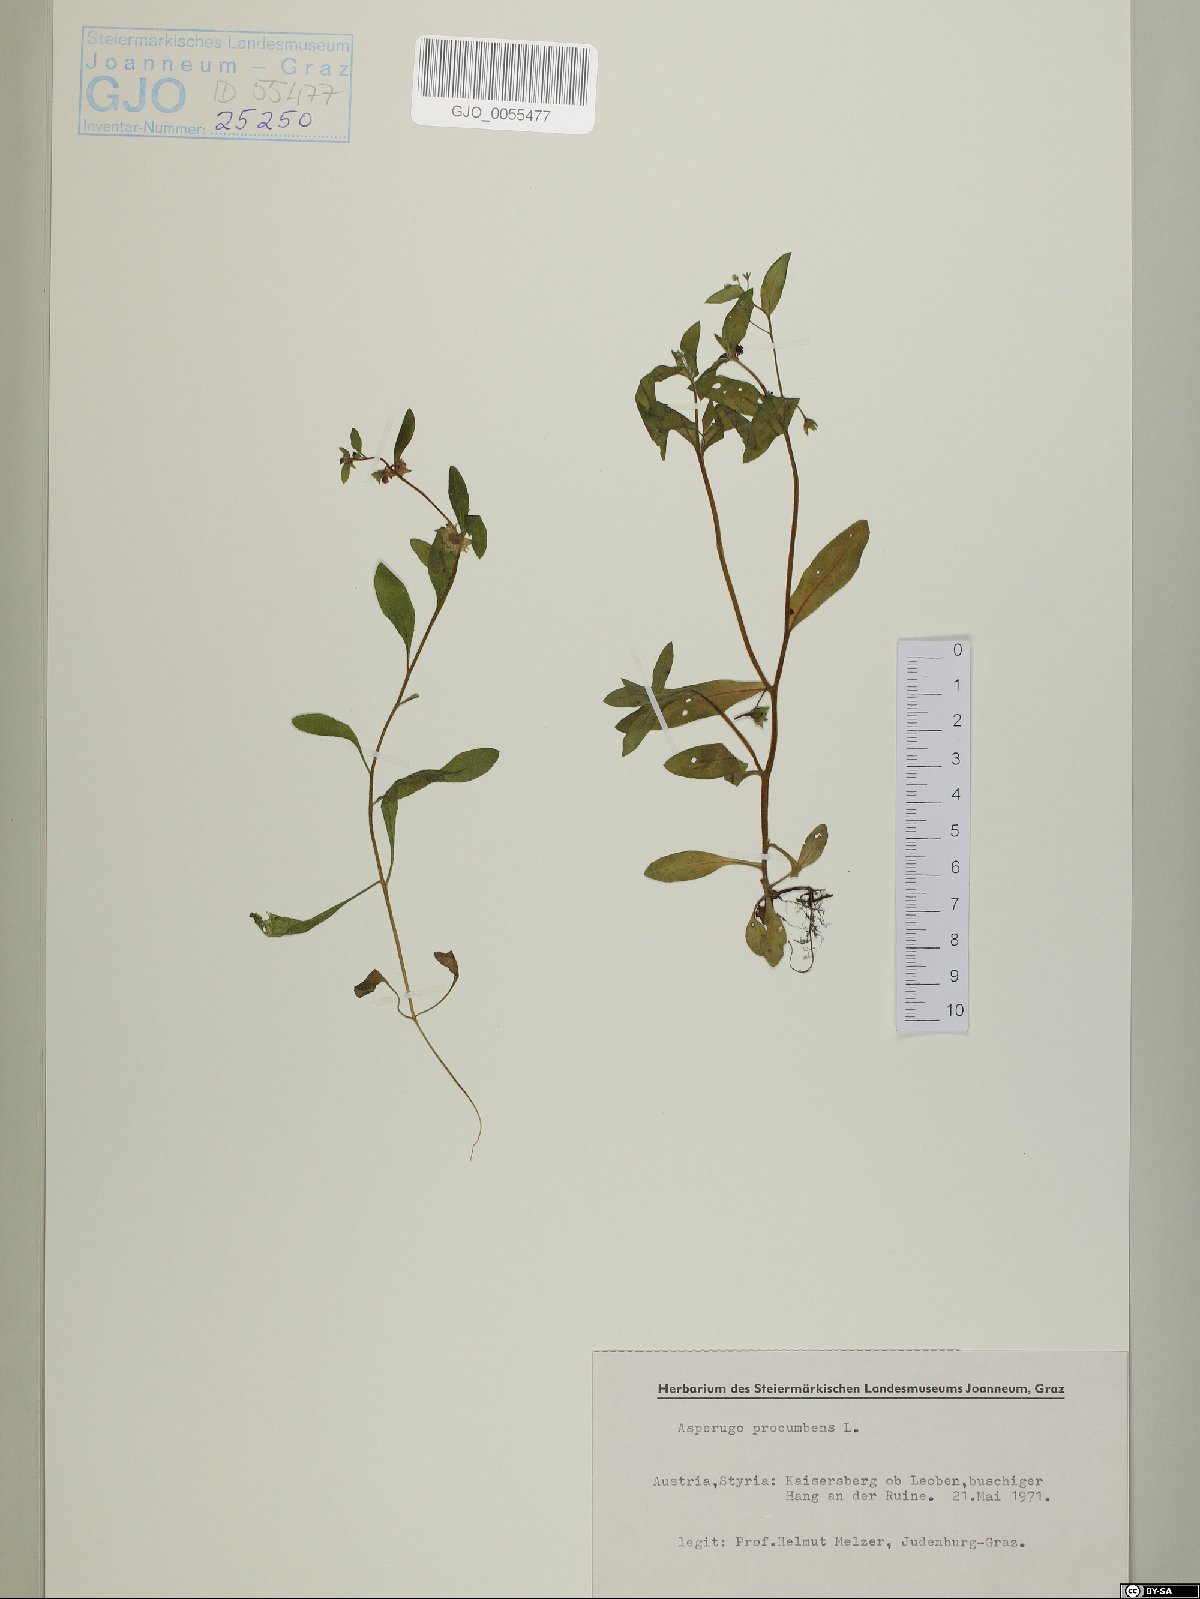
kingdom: Plantae
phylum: Tracheophyta
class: Magnoliopsida
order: Boraginales
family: Boraginaceae
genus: Asperugo
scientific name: Asperugo procumbens
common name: Madwort
